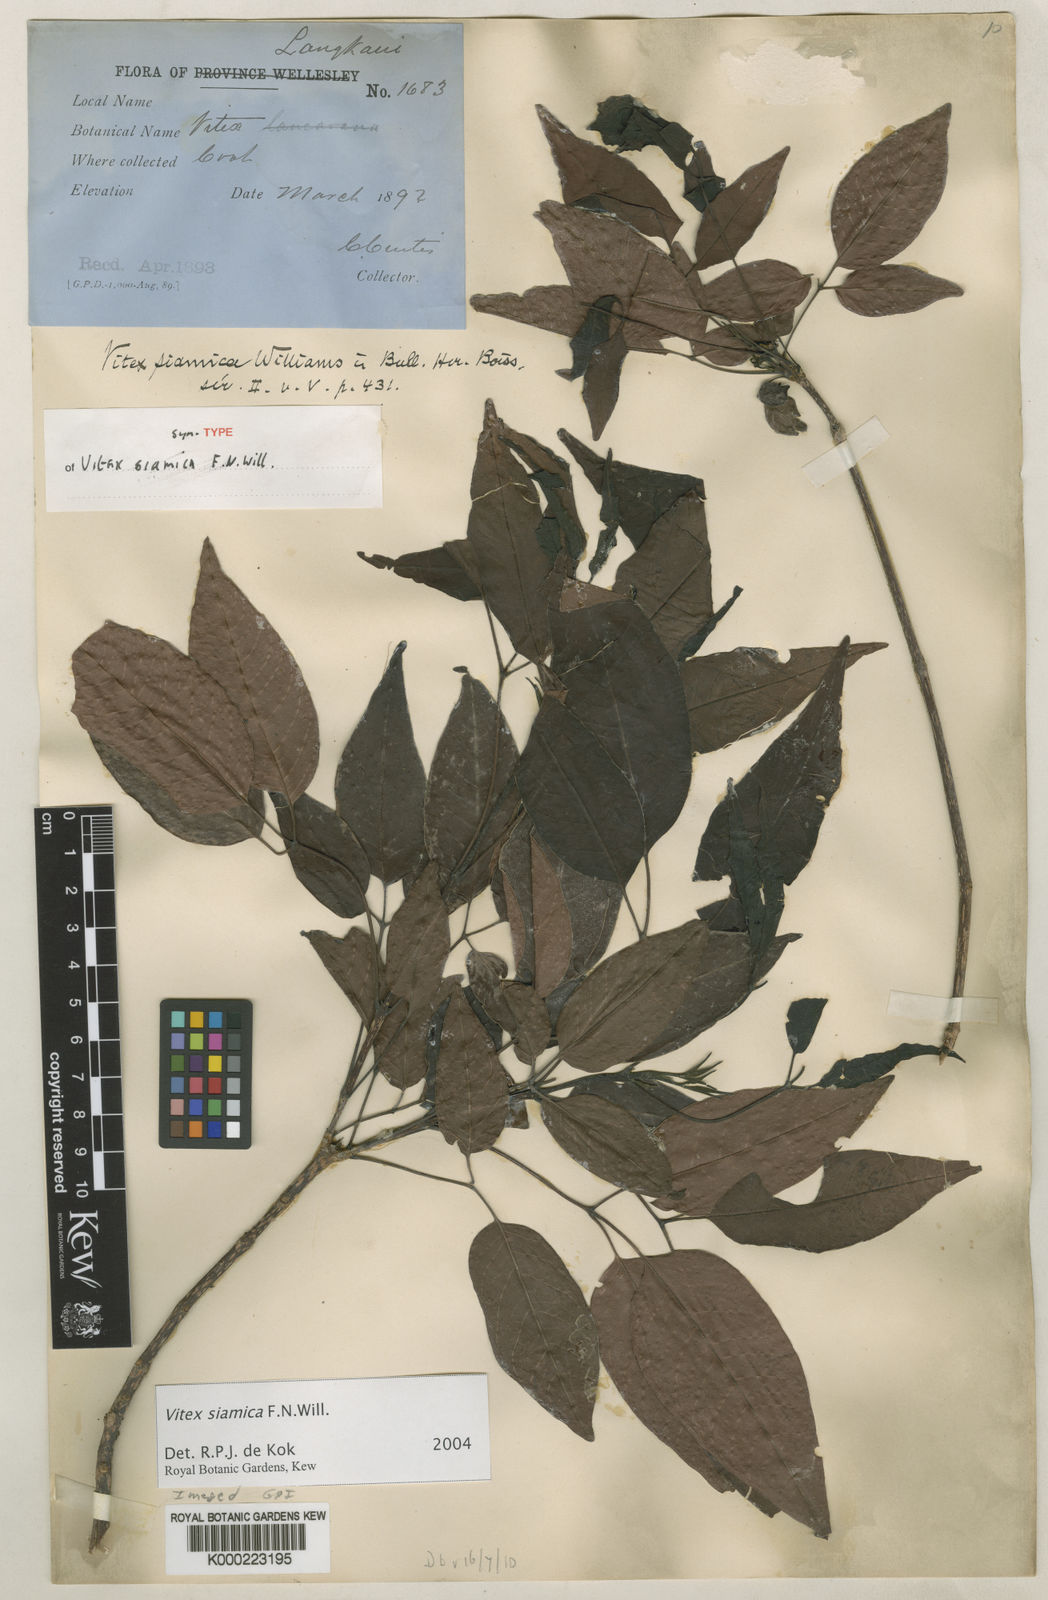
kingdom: Plantae
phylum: Tracheophyta
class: Magnoliopsida
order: Lamiales
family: Lamiaceae
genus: Vitex
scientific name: Vitex siamica
